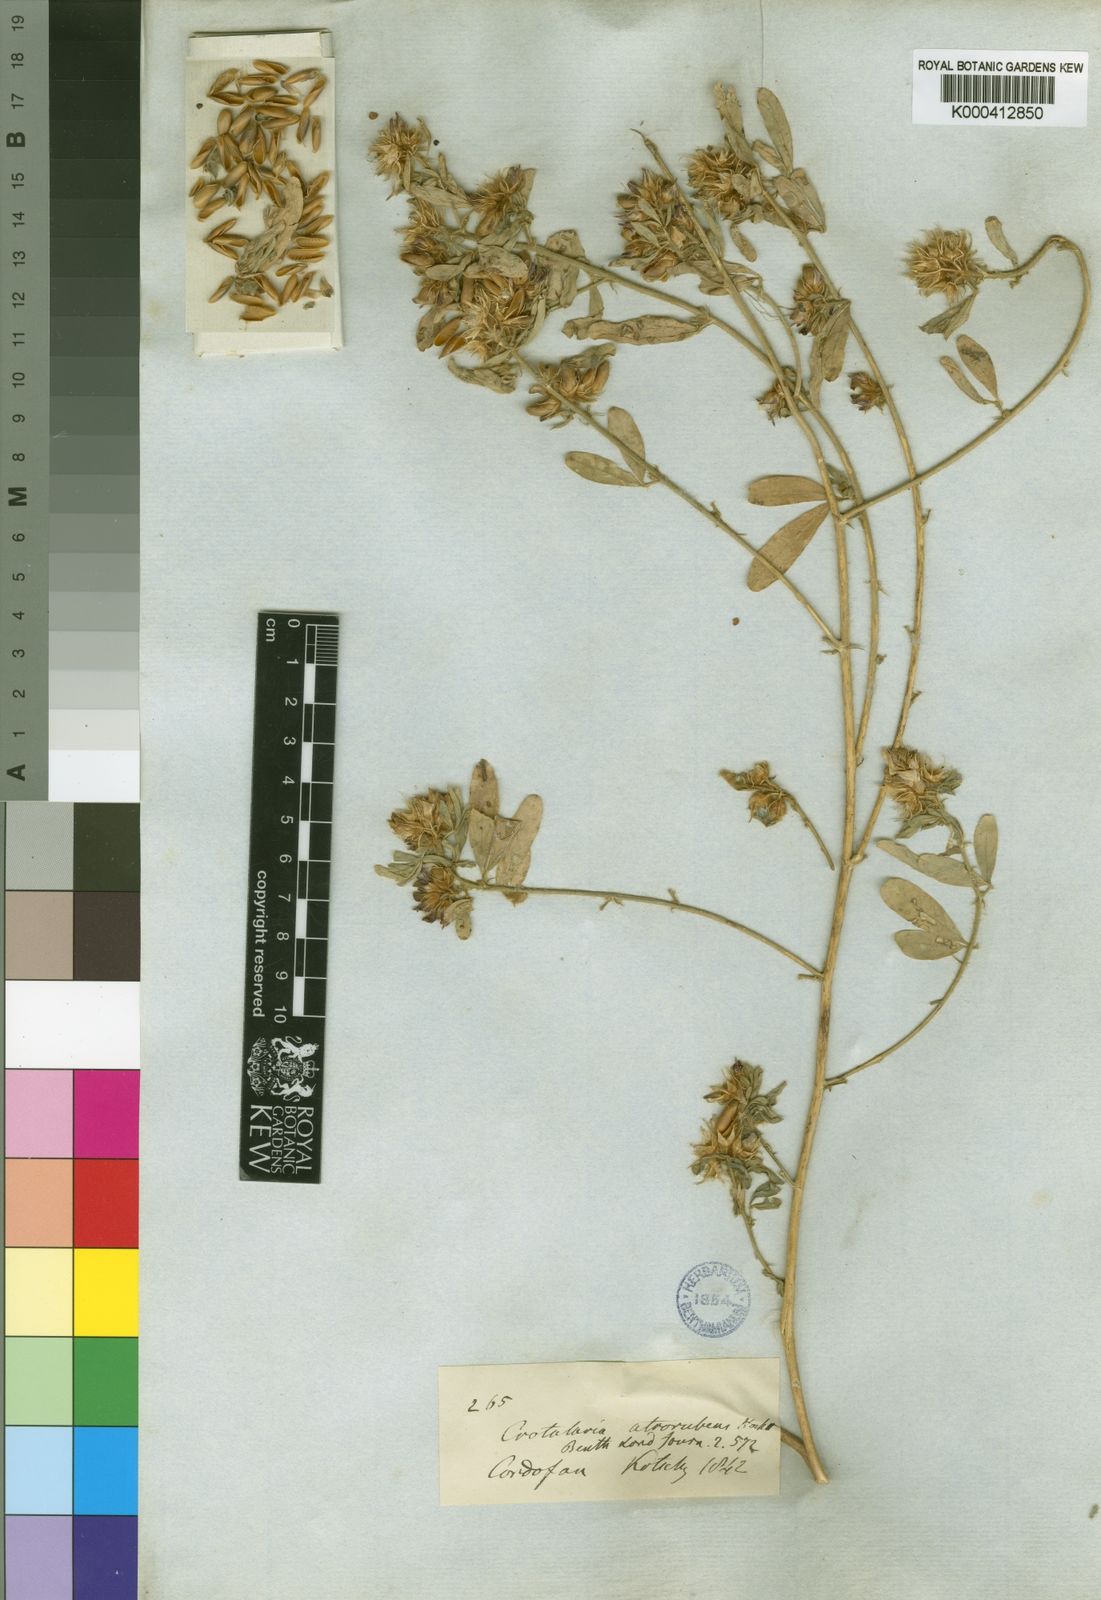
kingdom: Plantae
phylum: Tracheophyta
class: Magnoliopsida
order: Fabales
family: Fabaceae
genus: Crotalaria
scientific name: Crotalaria atrorubens
